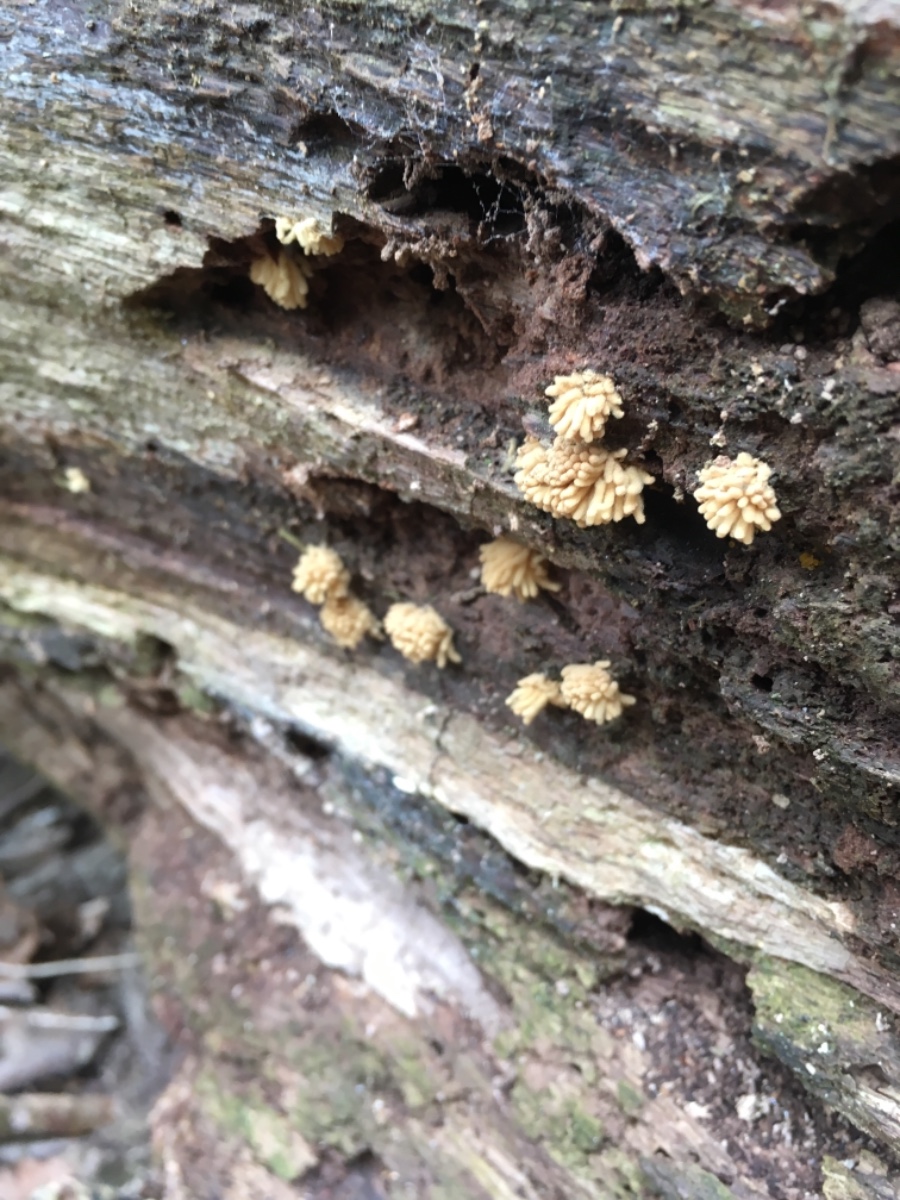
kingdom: Protozoa
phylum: Mycetozoa
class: Myxomycetes
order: Trichiales
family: Arcyriaceae
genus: Arcyria
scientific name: Arcyria obvelata
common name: okkergul skålsvøb
